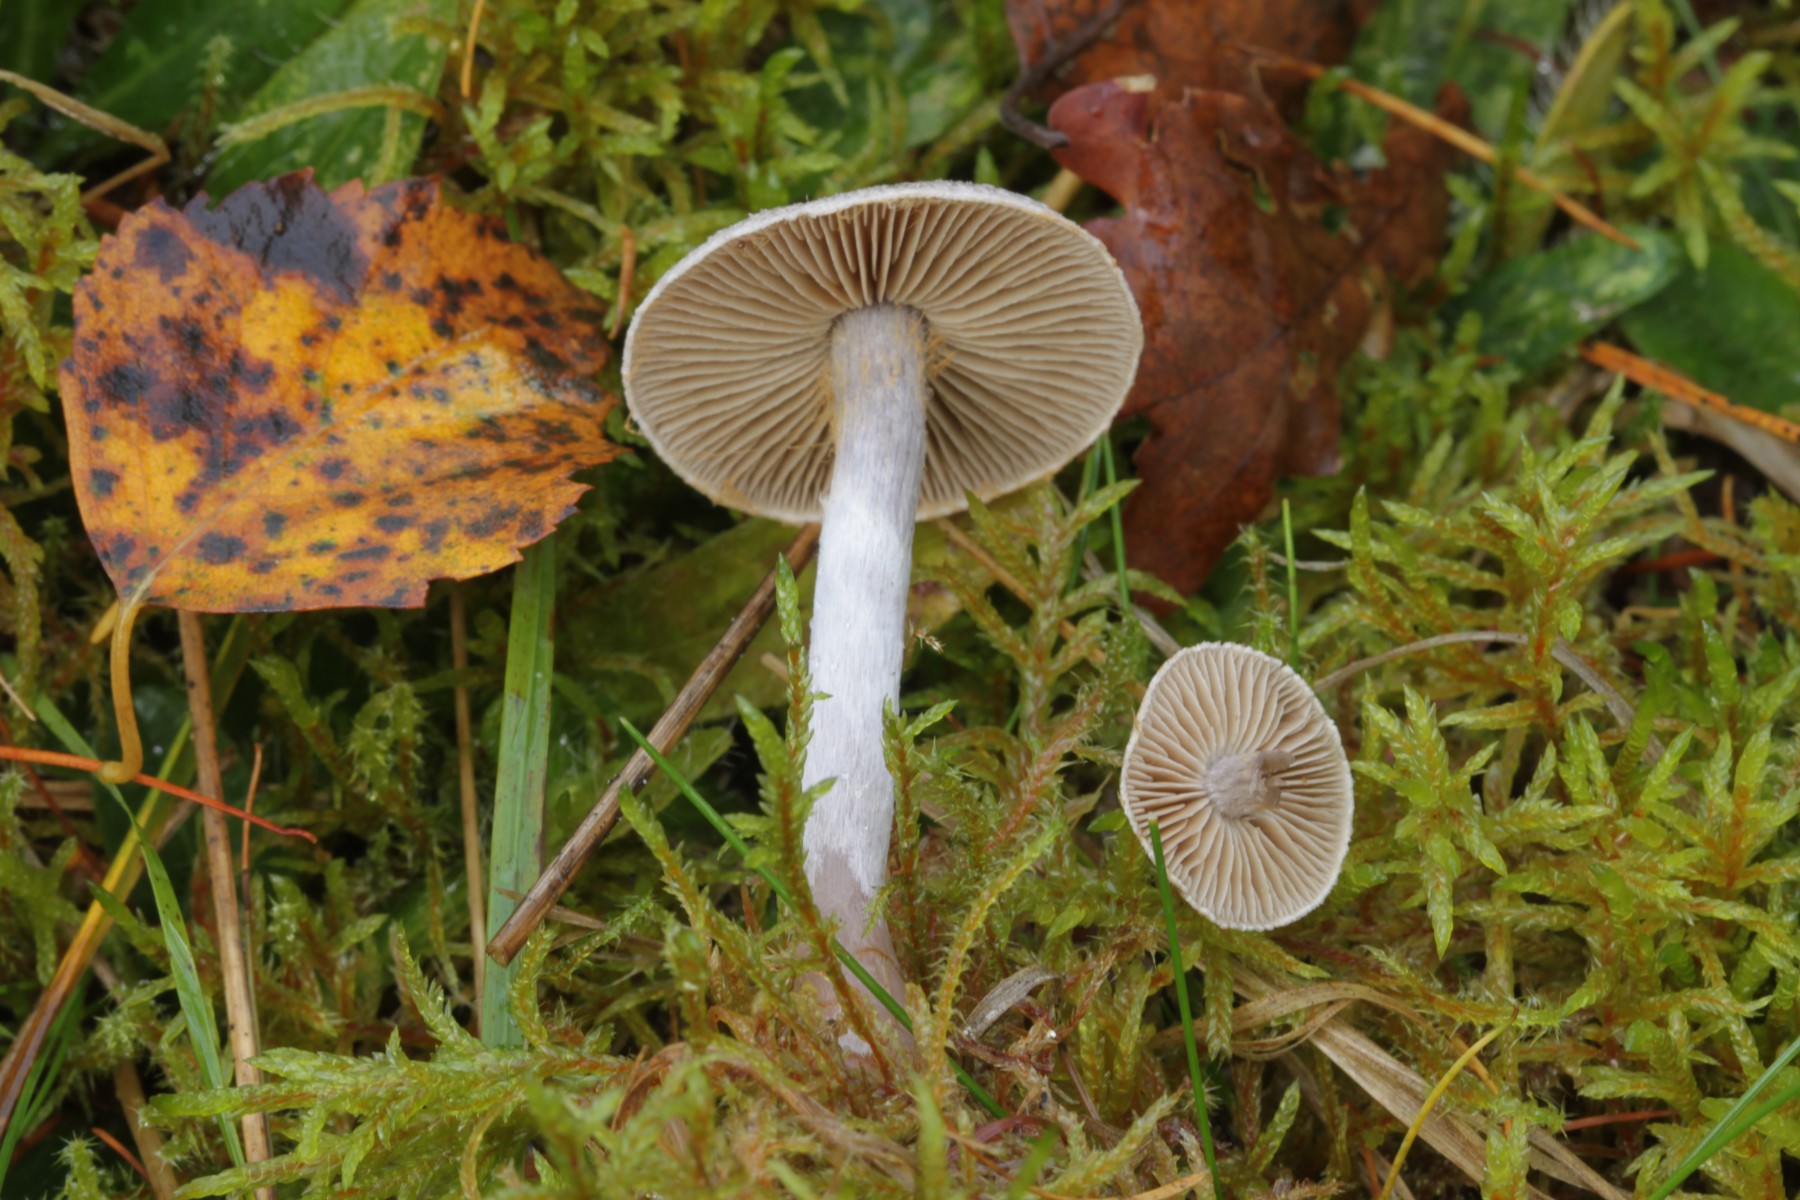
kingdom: Fungi
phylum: Basidiomycota
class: Agaricomycetes
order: Agaricales
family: Cortinariaceae
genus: Cortinarius
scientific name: Cortinarius hemitrichus
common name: hvidfnugget slørhat
